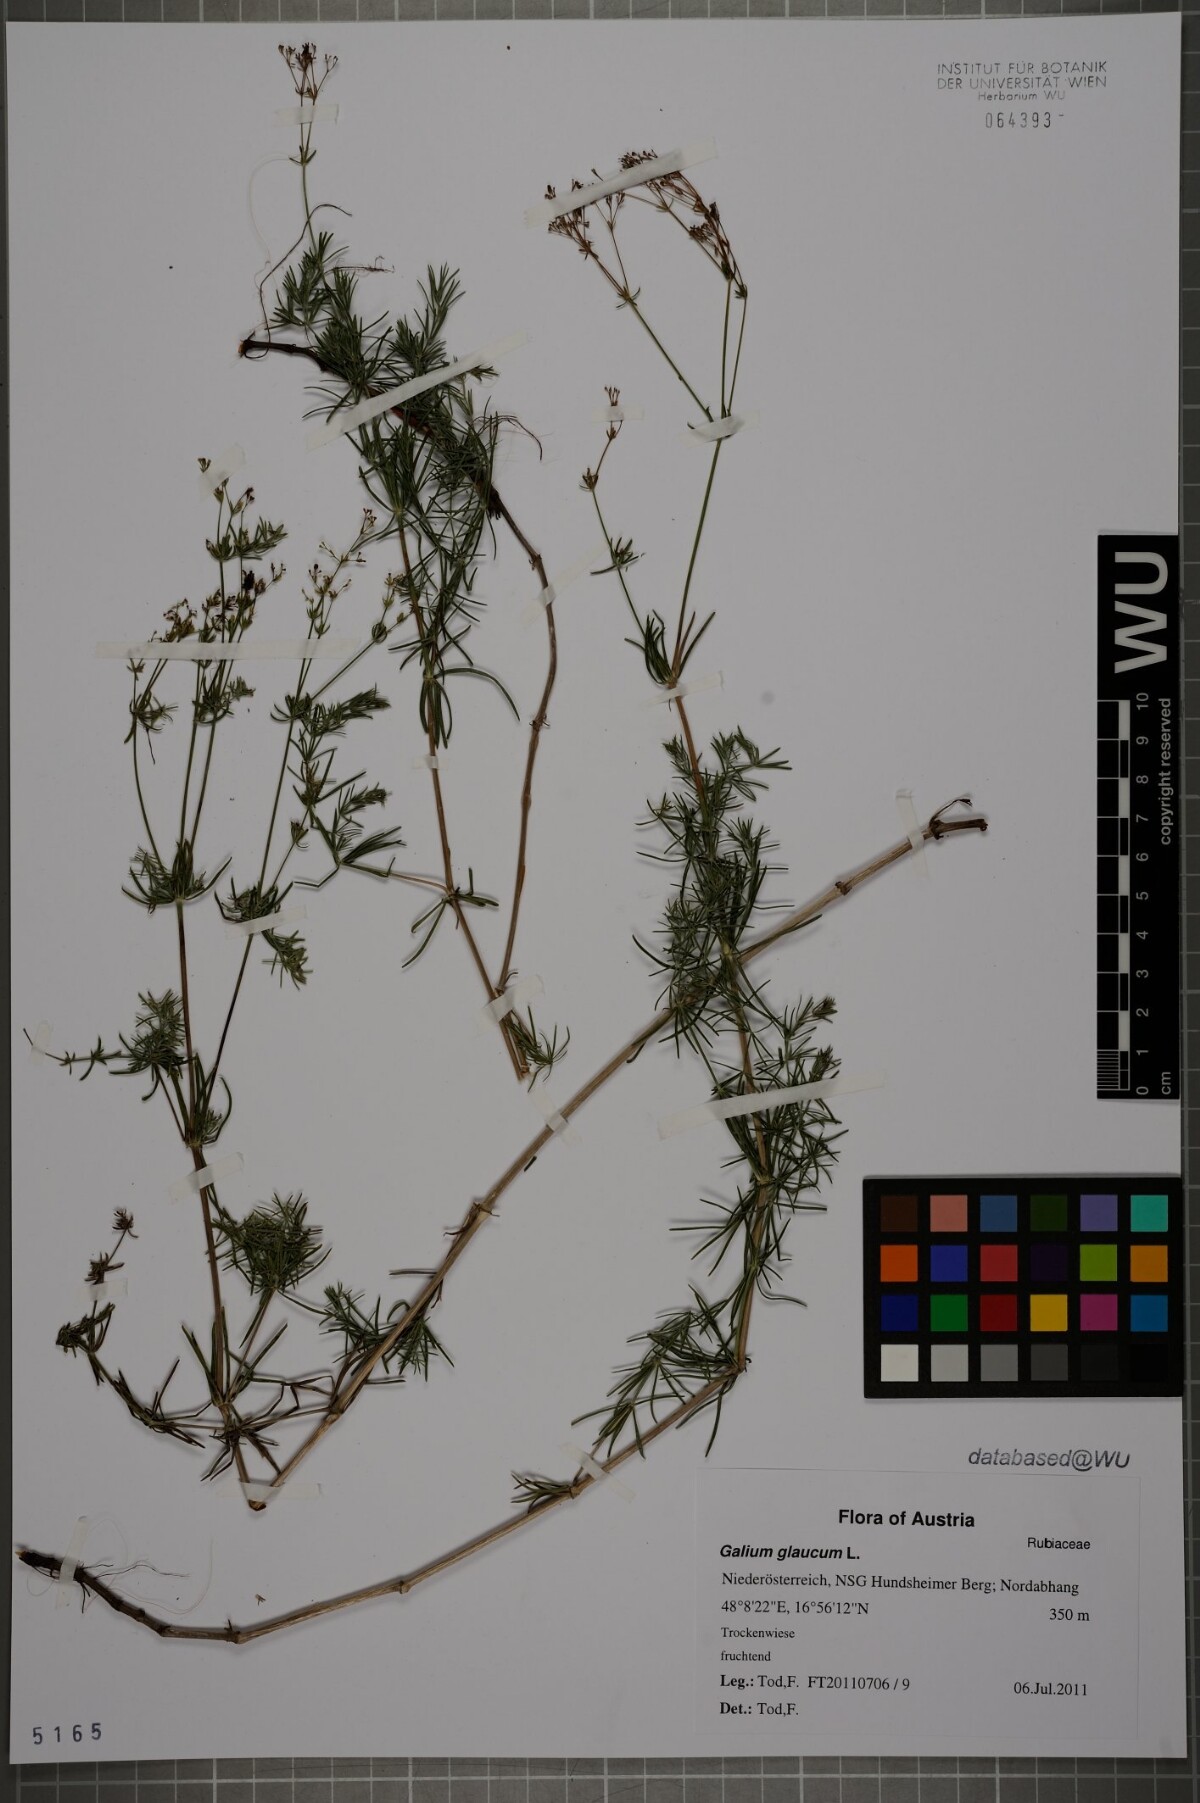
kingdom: Plantae
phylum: Tracheophyta
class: Magnoliopsida
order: Gentianales
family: Rubiaceae
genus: Galium
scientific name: Galium glaucum
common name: Waxy bedstraw
